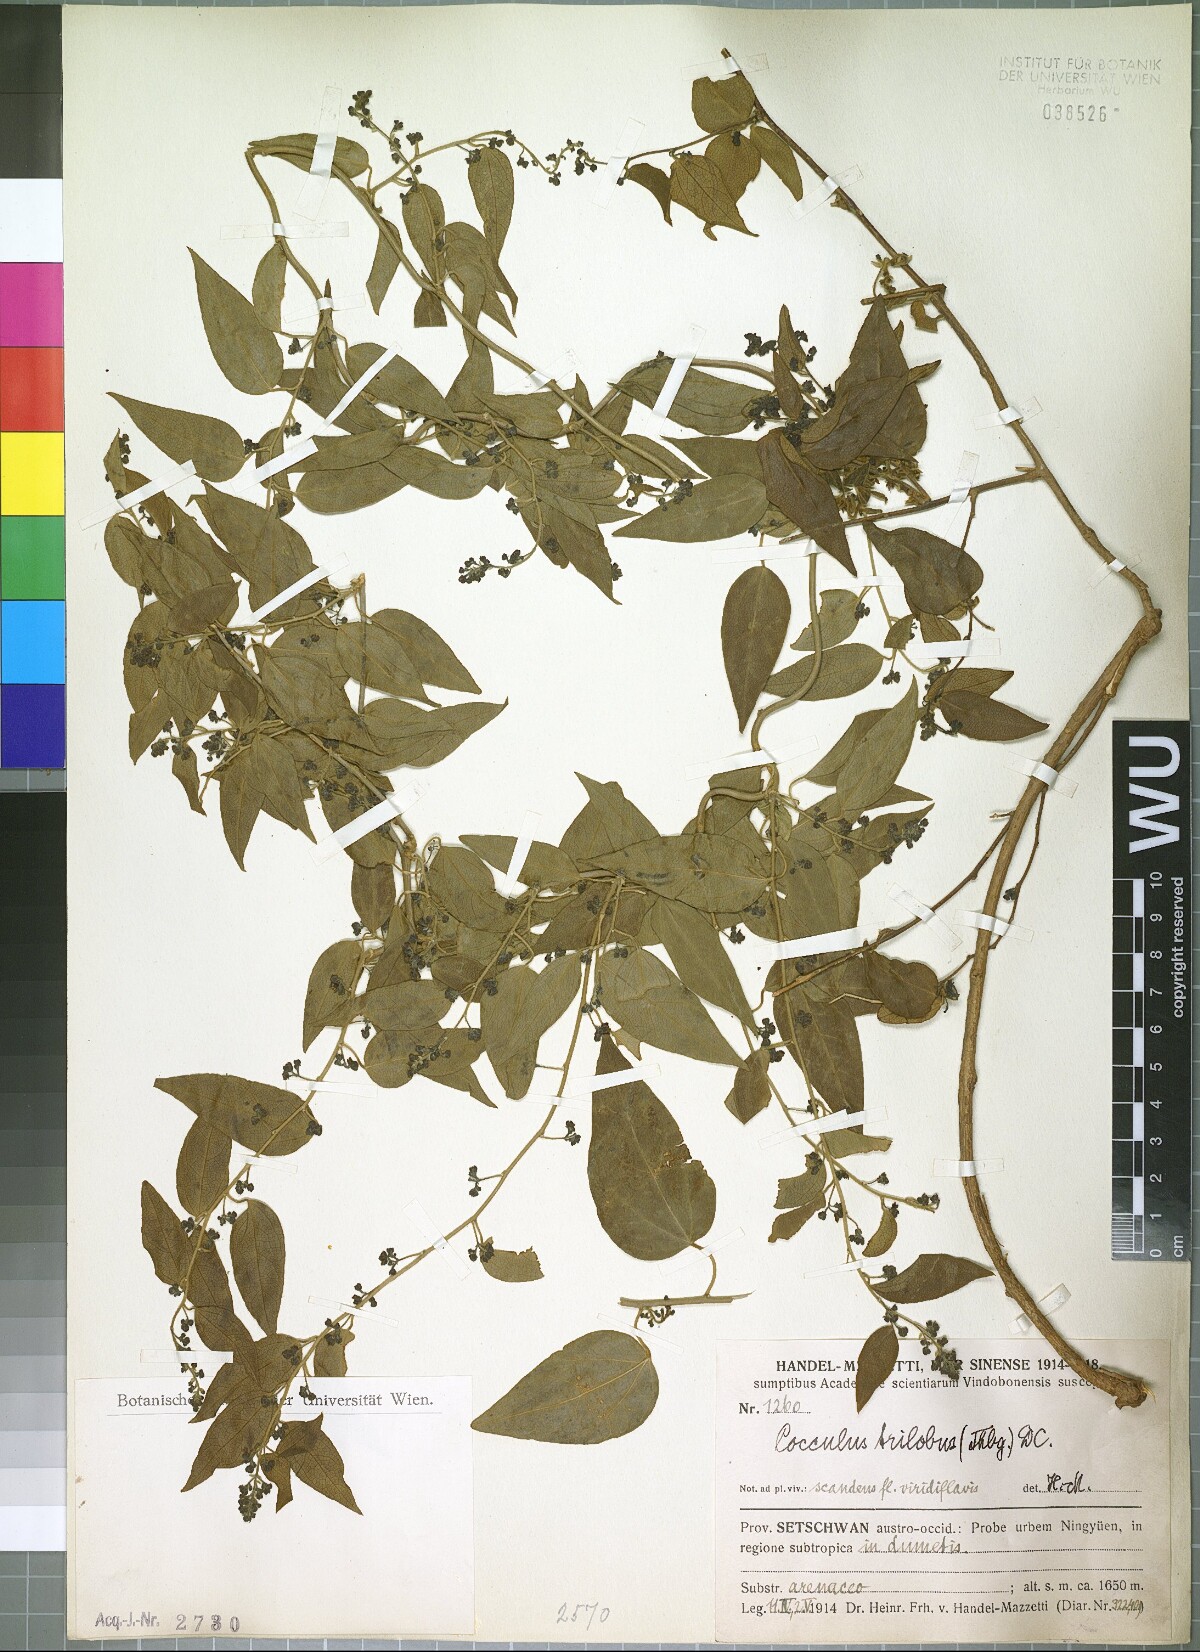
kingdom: Plantae
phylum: Tracheophyta
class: Magnoliopsida
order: Ranunculales
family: Menispermaceae
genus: Cocculus
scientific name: Cocculus orbiculatus
